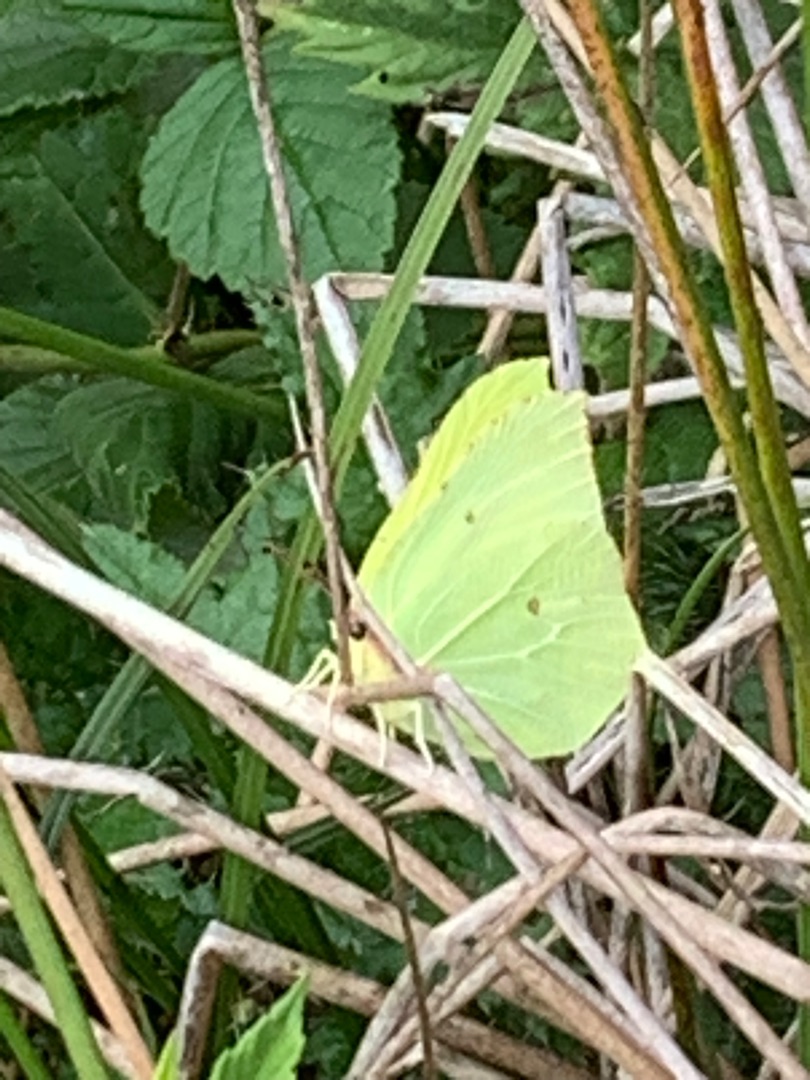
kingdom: Animalia
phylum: Arthropoda
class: Insecta
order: Lepidoptera
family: Pieridae
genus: Gonepteryx
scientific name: Gonepteryx rhamni
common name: Citronsommerfugl
